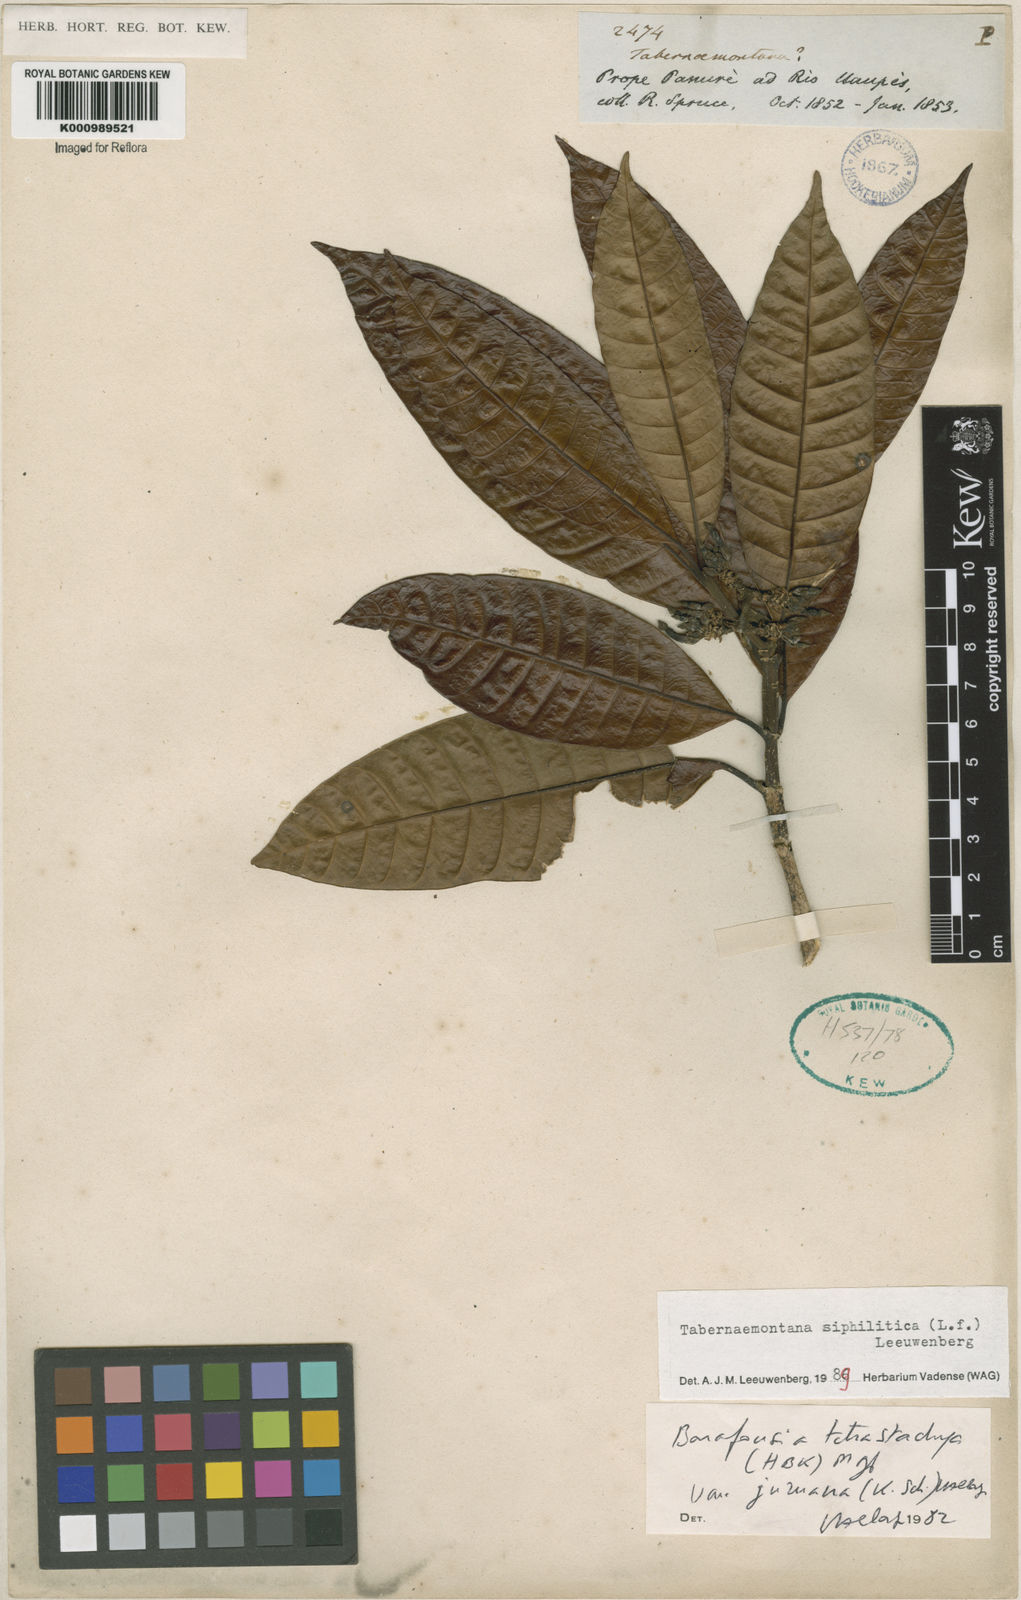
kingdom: Plantae
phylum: Tracheophyta
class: Magnoliopsida
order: Gentianales
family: Apocynaceae
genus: Tabernaemontana
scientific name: Tabernaemontana siphilitica
